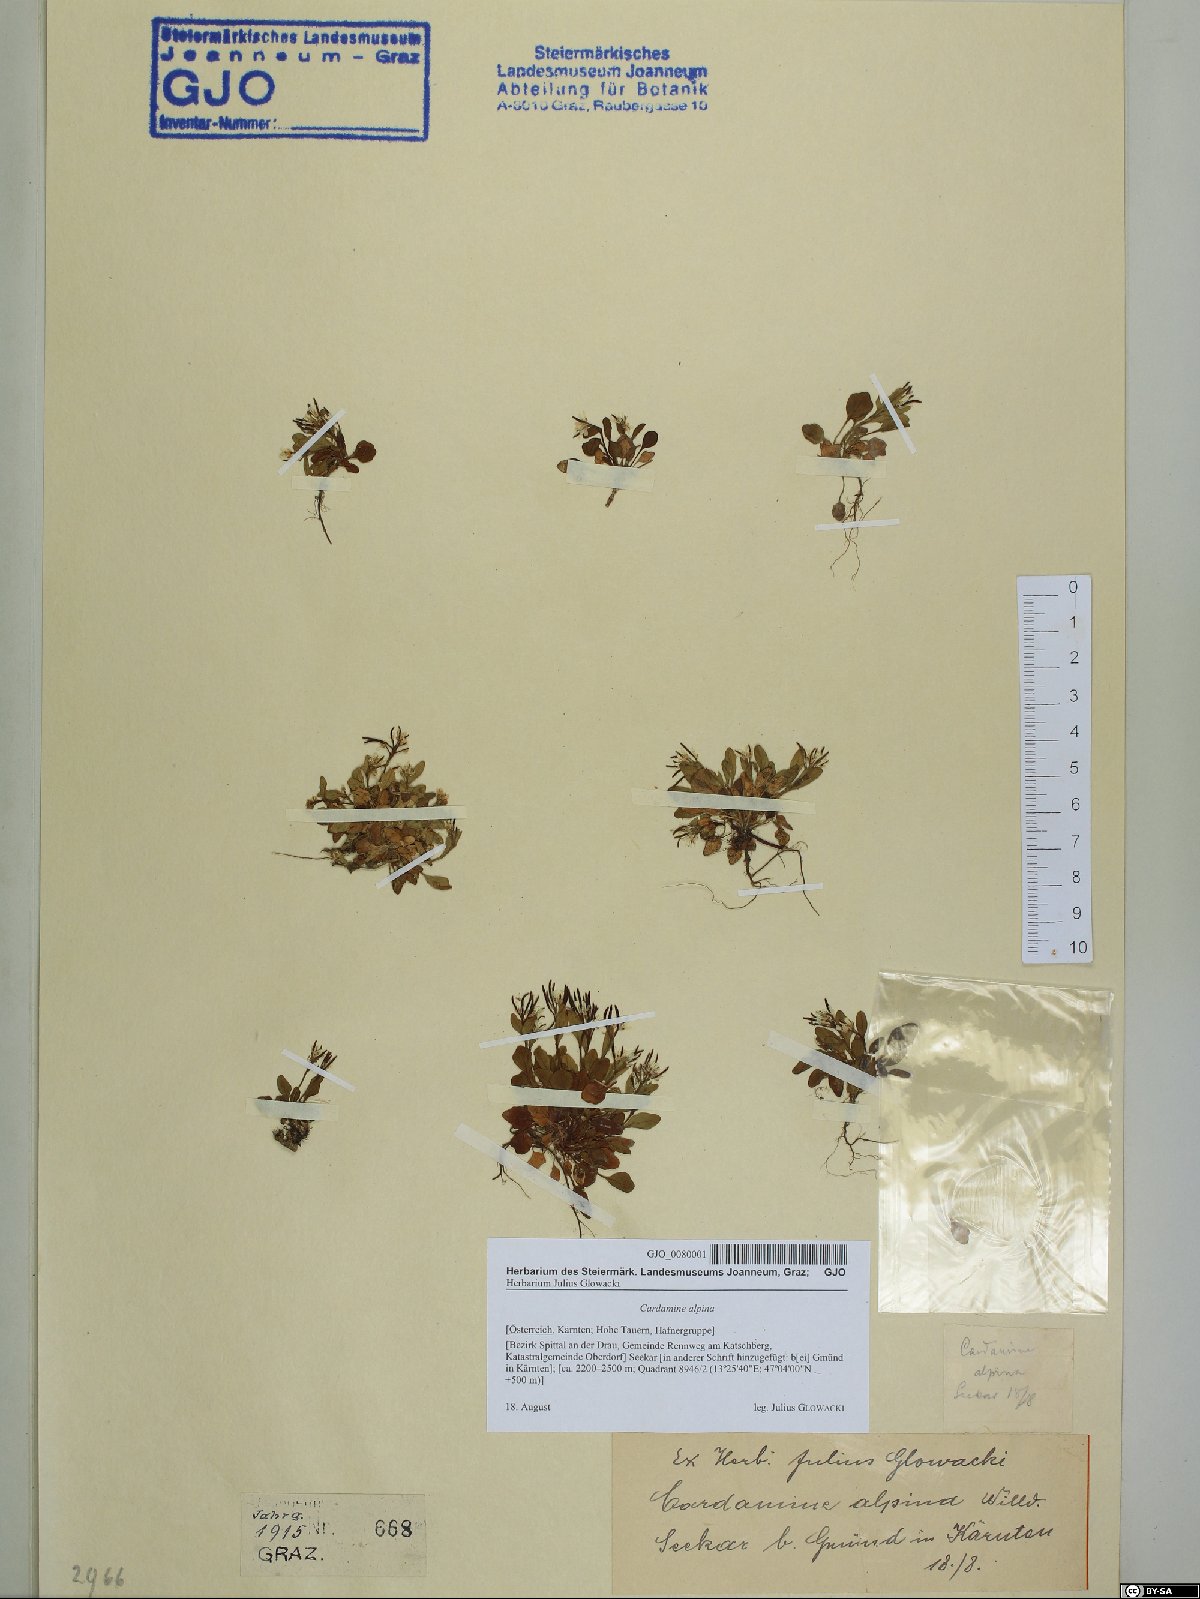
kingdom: Plantae
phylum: Tracheophyta
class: Magnoliopsida
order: Brassicales
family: Brassicaceae
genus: Cardamine
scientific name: Cardamine bellidifolia
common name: Alpine bittercress
